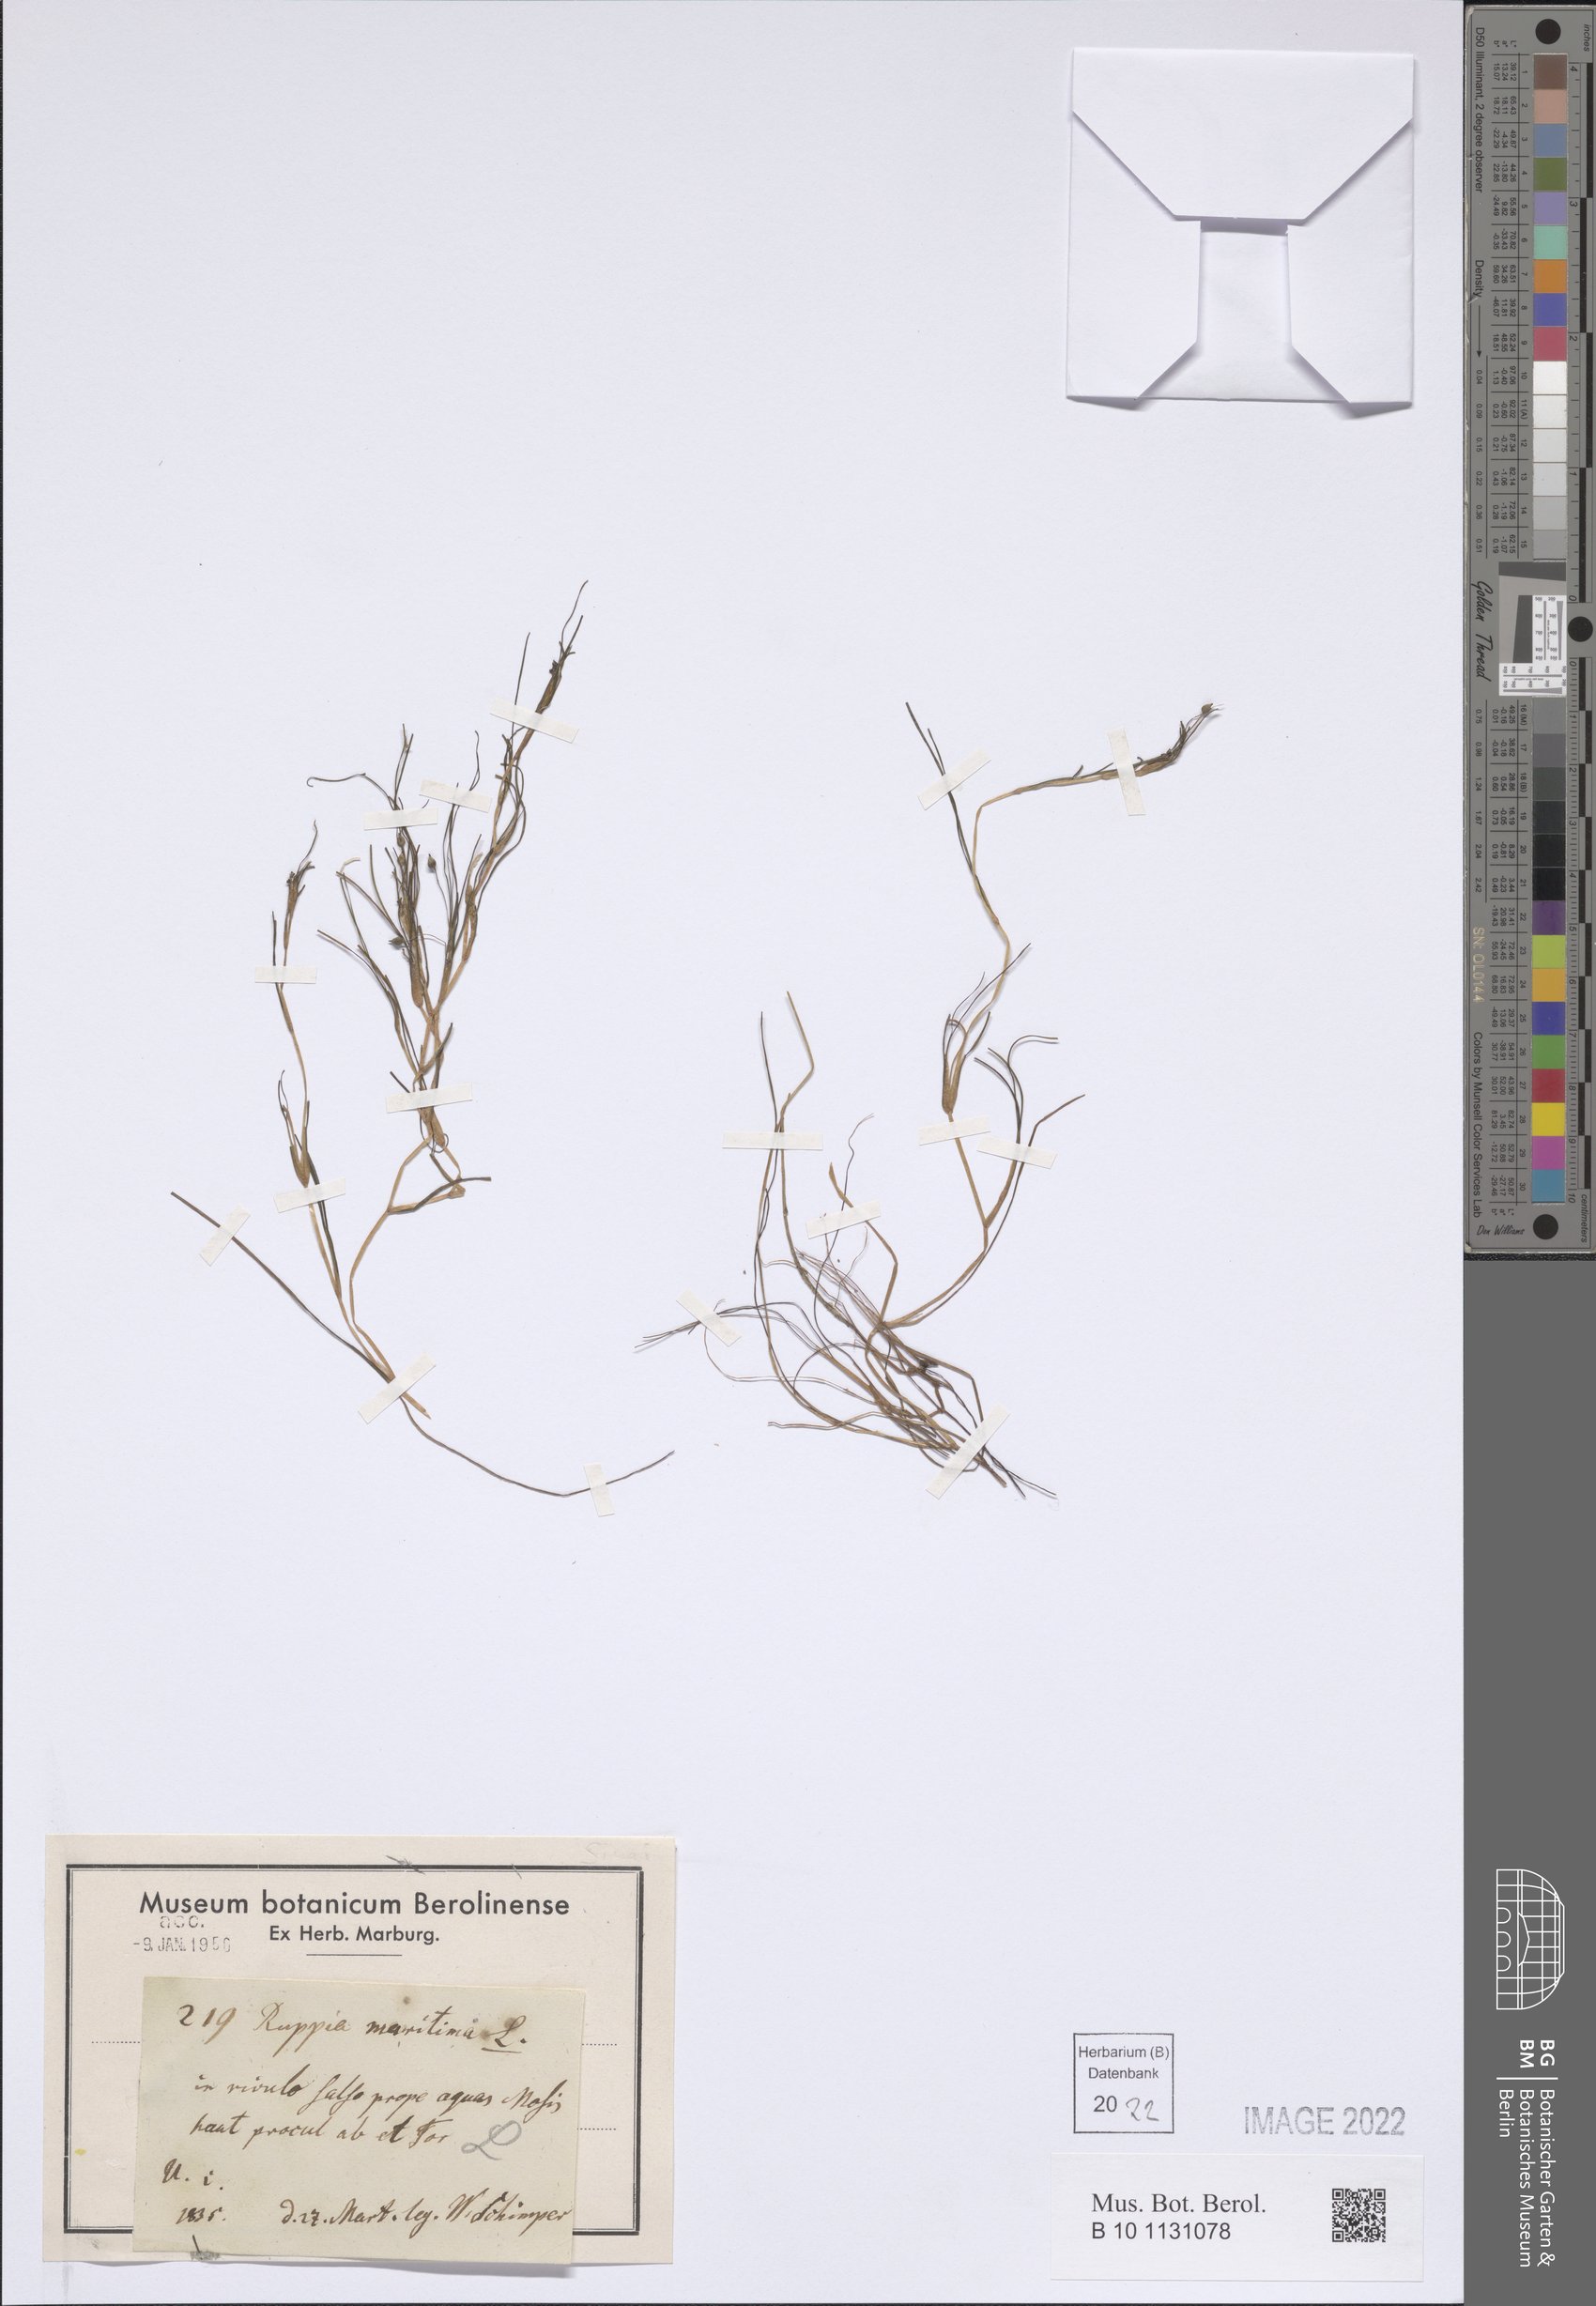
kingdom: Plantae
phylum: Tracheophyta
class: Liliopsida
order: Alismatales
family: Ruppiaceae
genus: Ruppia
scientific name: Ruppia maritima
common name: Beaked tasselweed
